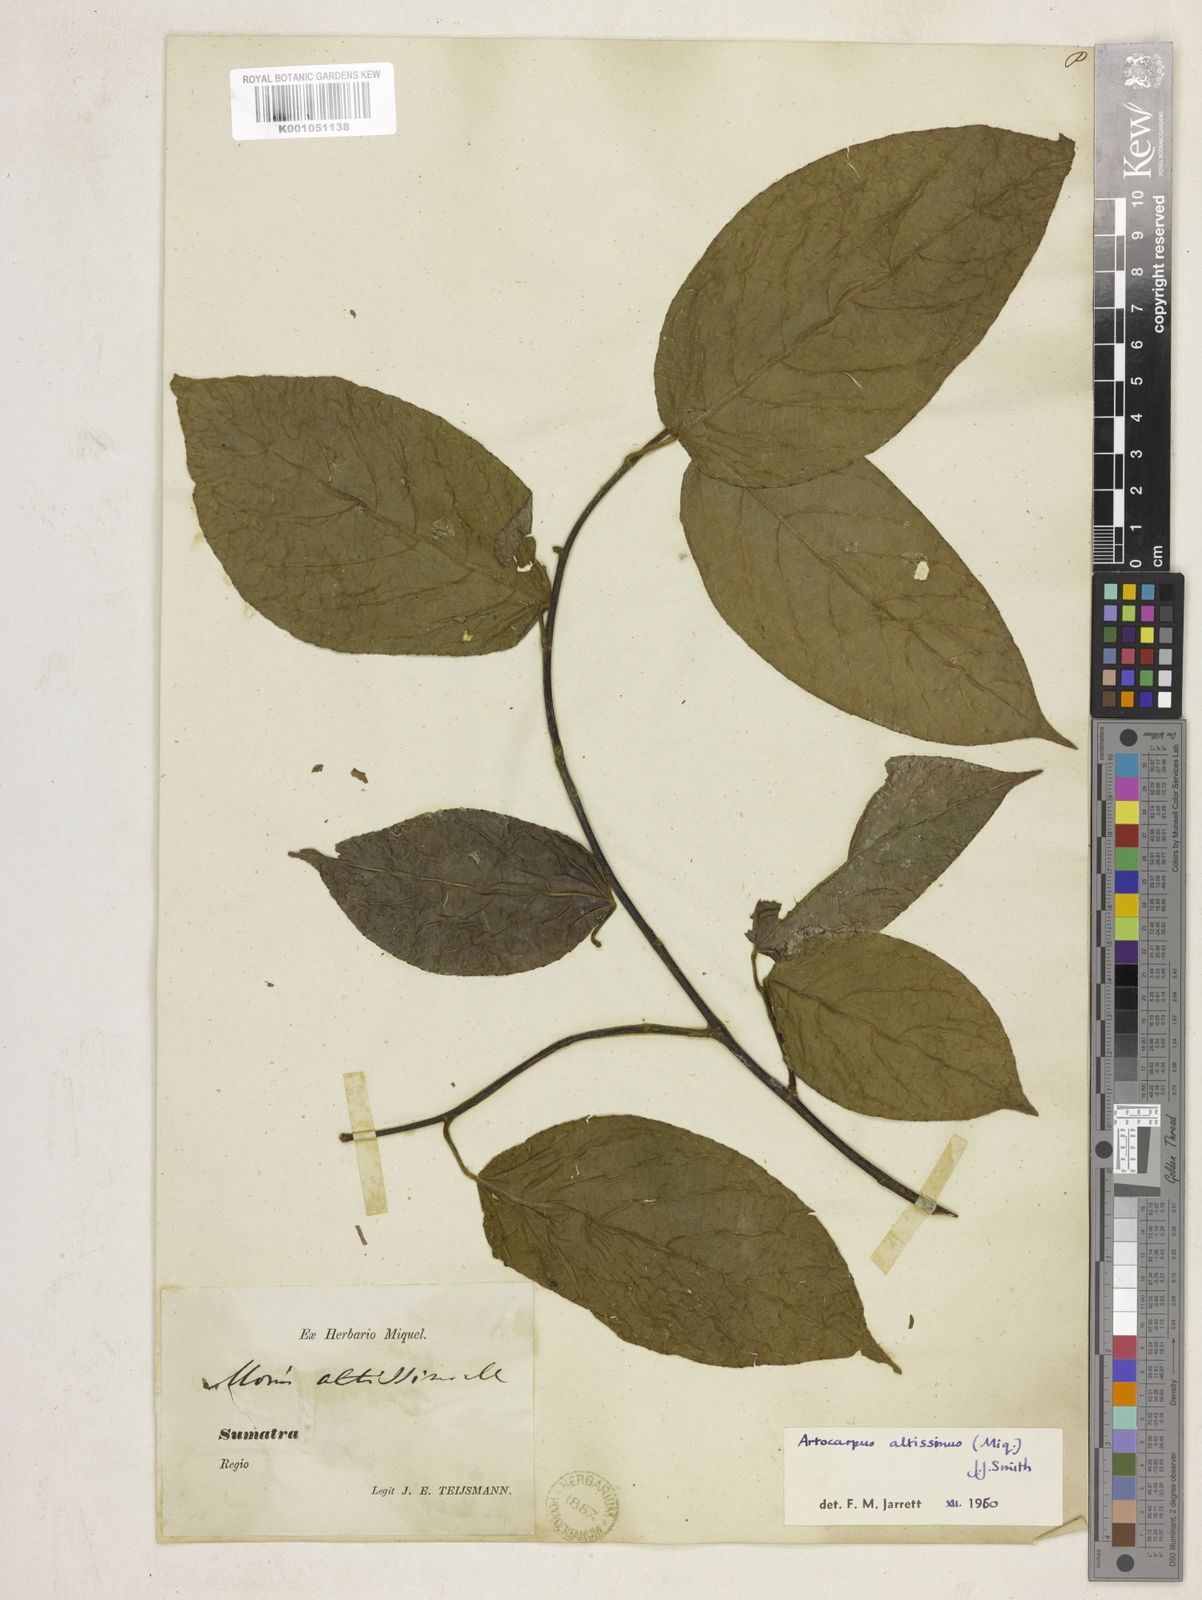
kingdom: Plantae
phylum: Tracheophyta
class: Magnoliopsida
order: Rosales
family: Moraceae
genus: Artocarpus
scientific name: Artocarpus altissimus
